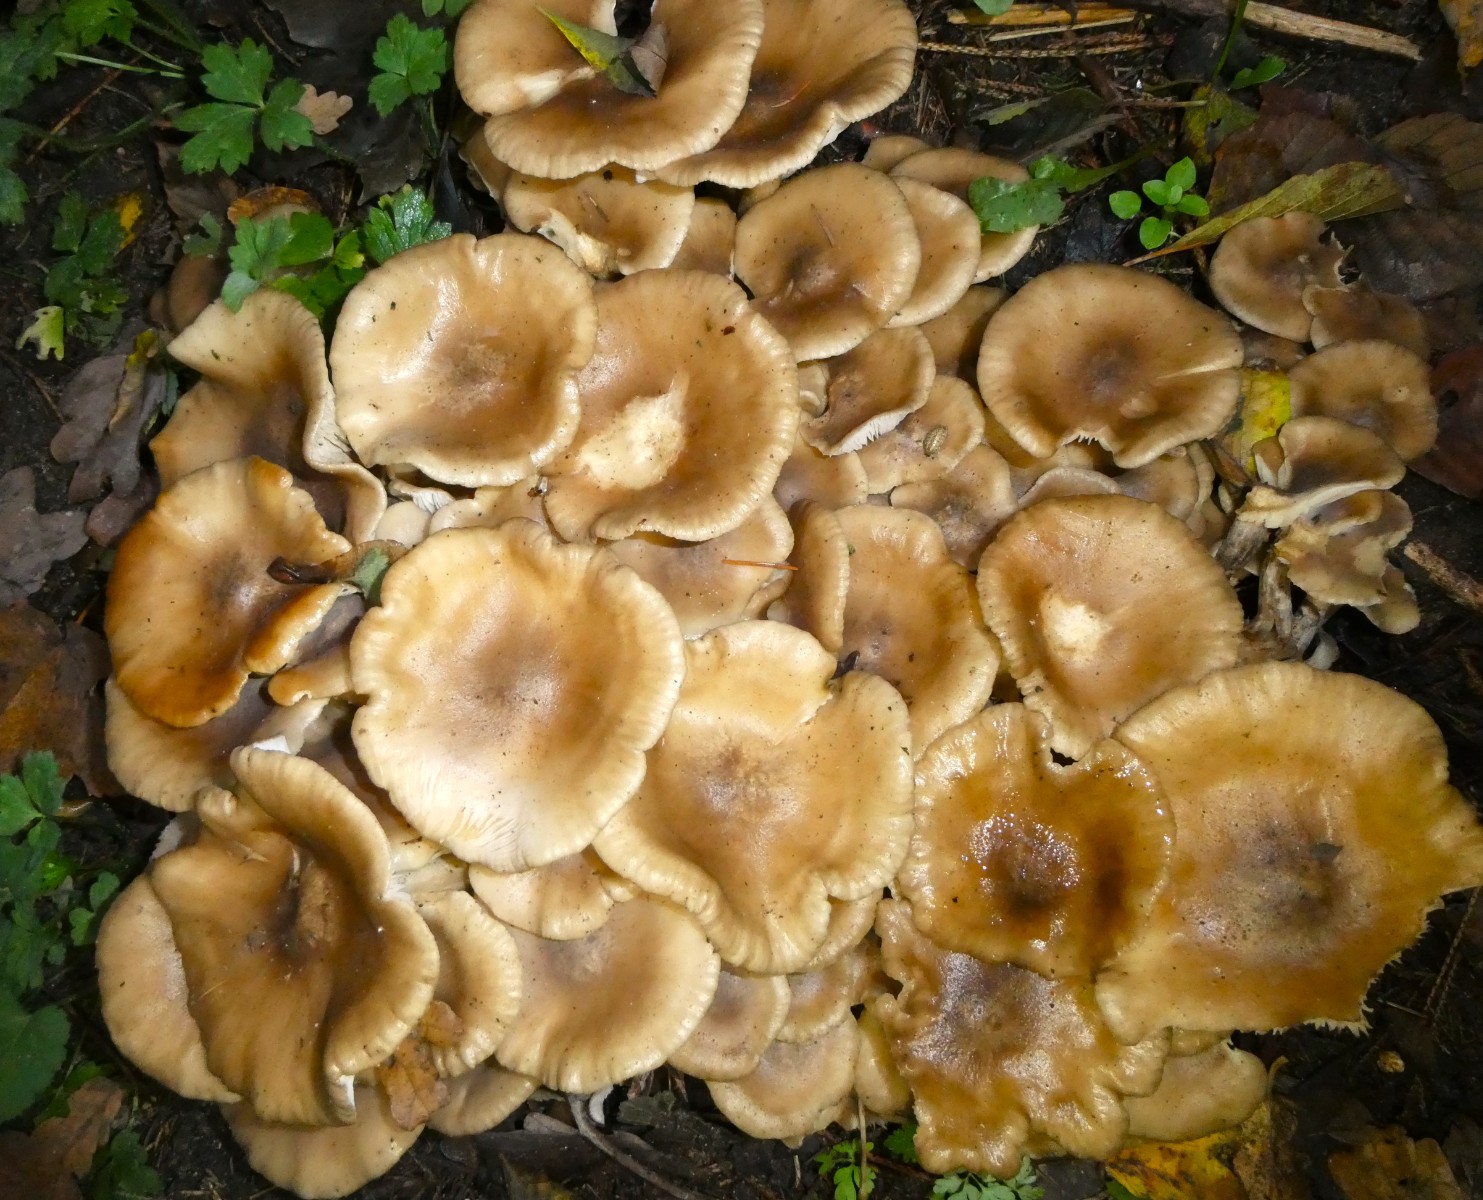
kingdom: Fungi
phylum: Basidiomycota
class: Agaricomycetes
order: Agaricales
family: Lyophyllaceae
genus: Lyophyllum
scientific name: Lyophyllum decastes
